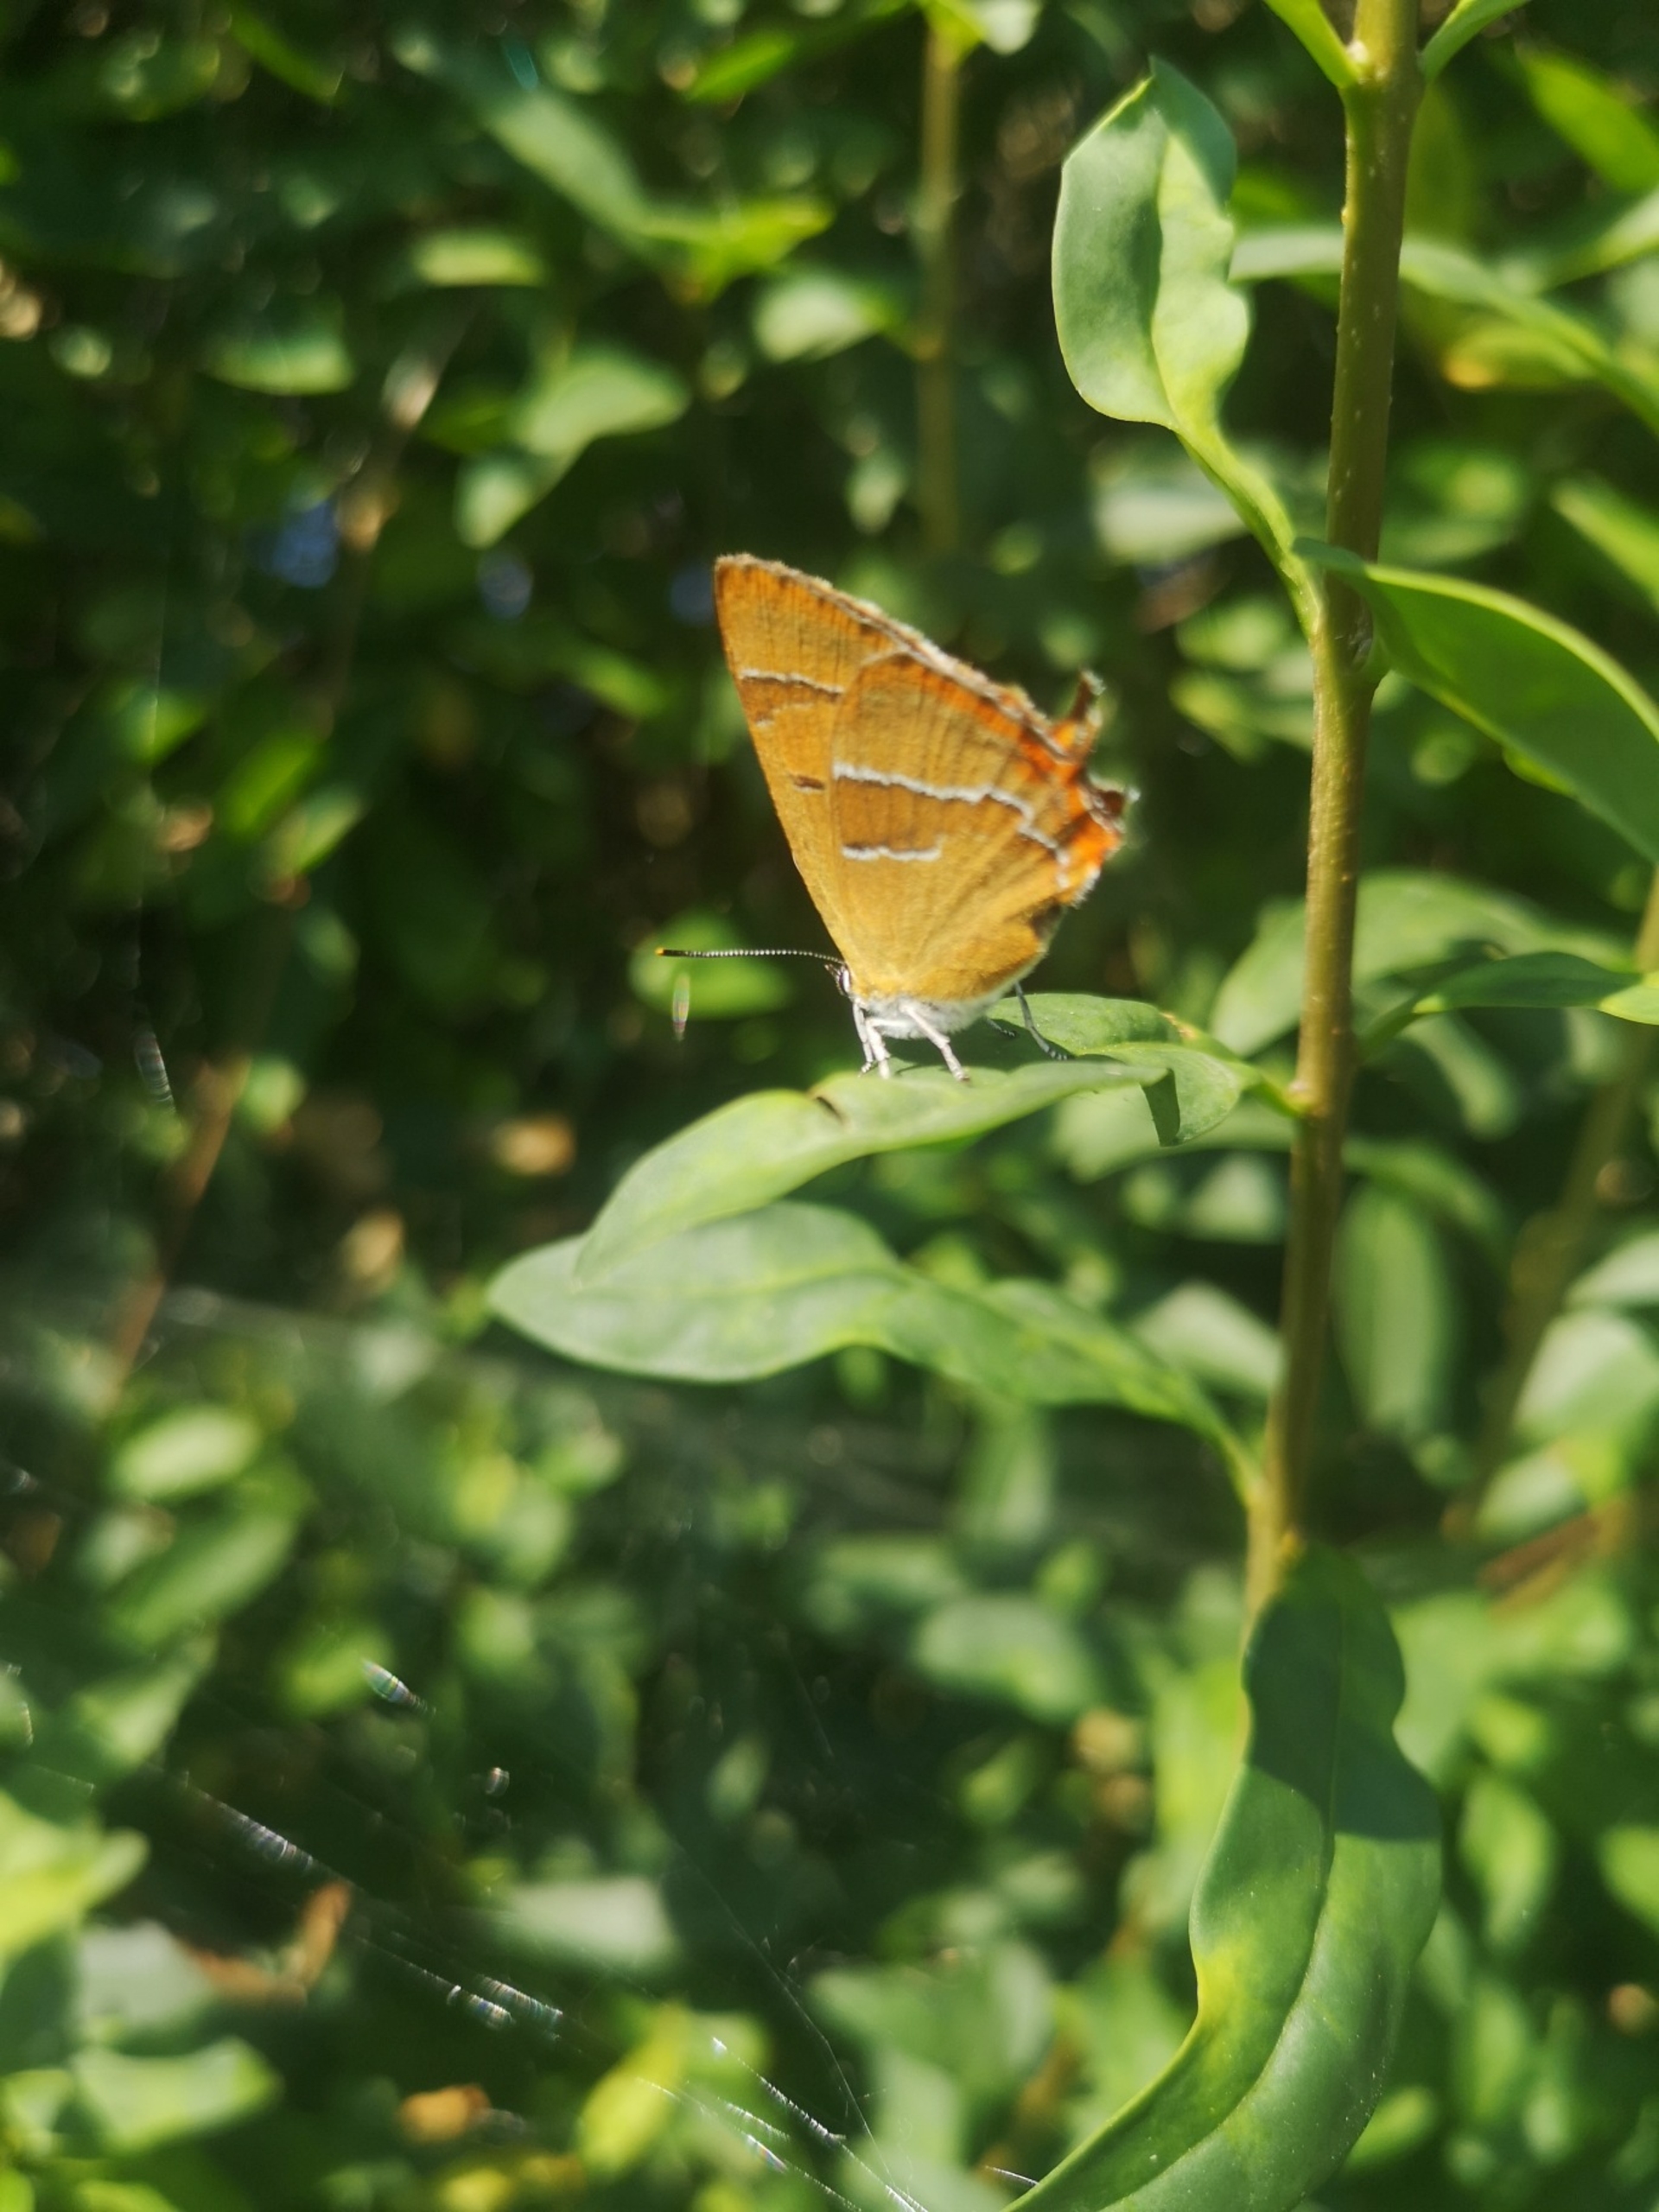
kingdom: Animalia
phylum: Arthropoda
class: Insecta
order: Lepidoptera
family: Lycaenidae
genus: Thecla
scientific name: Thecla betulae
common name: Guldhale
